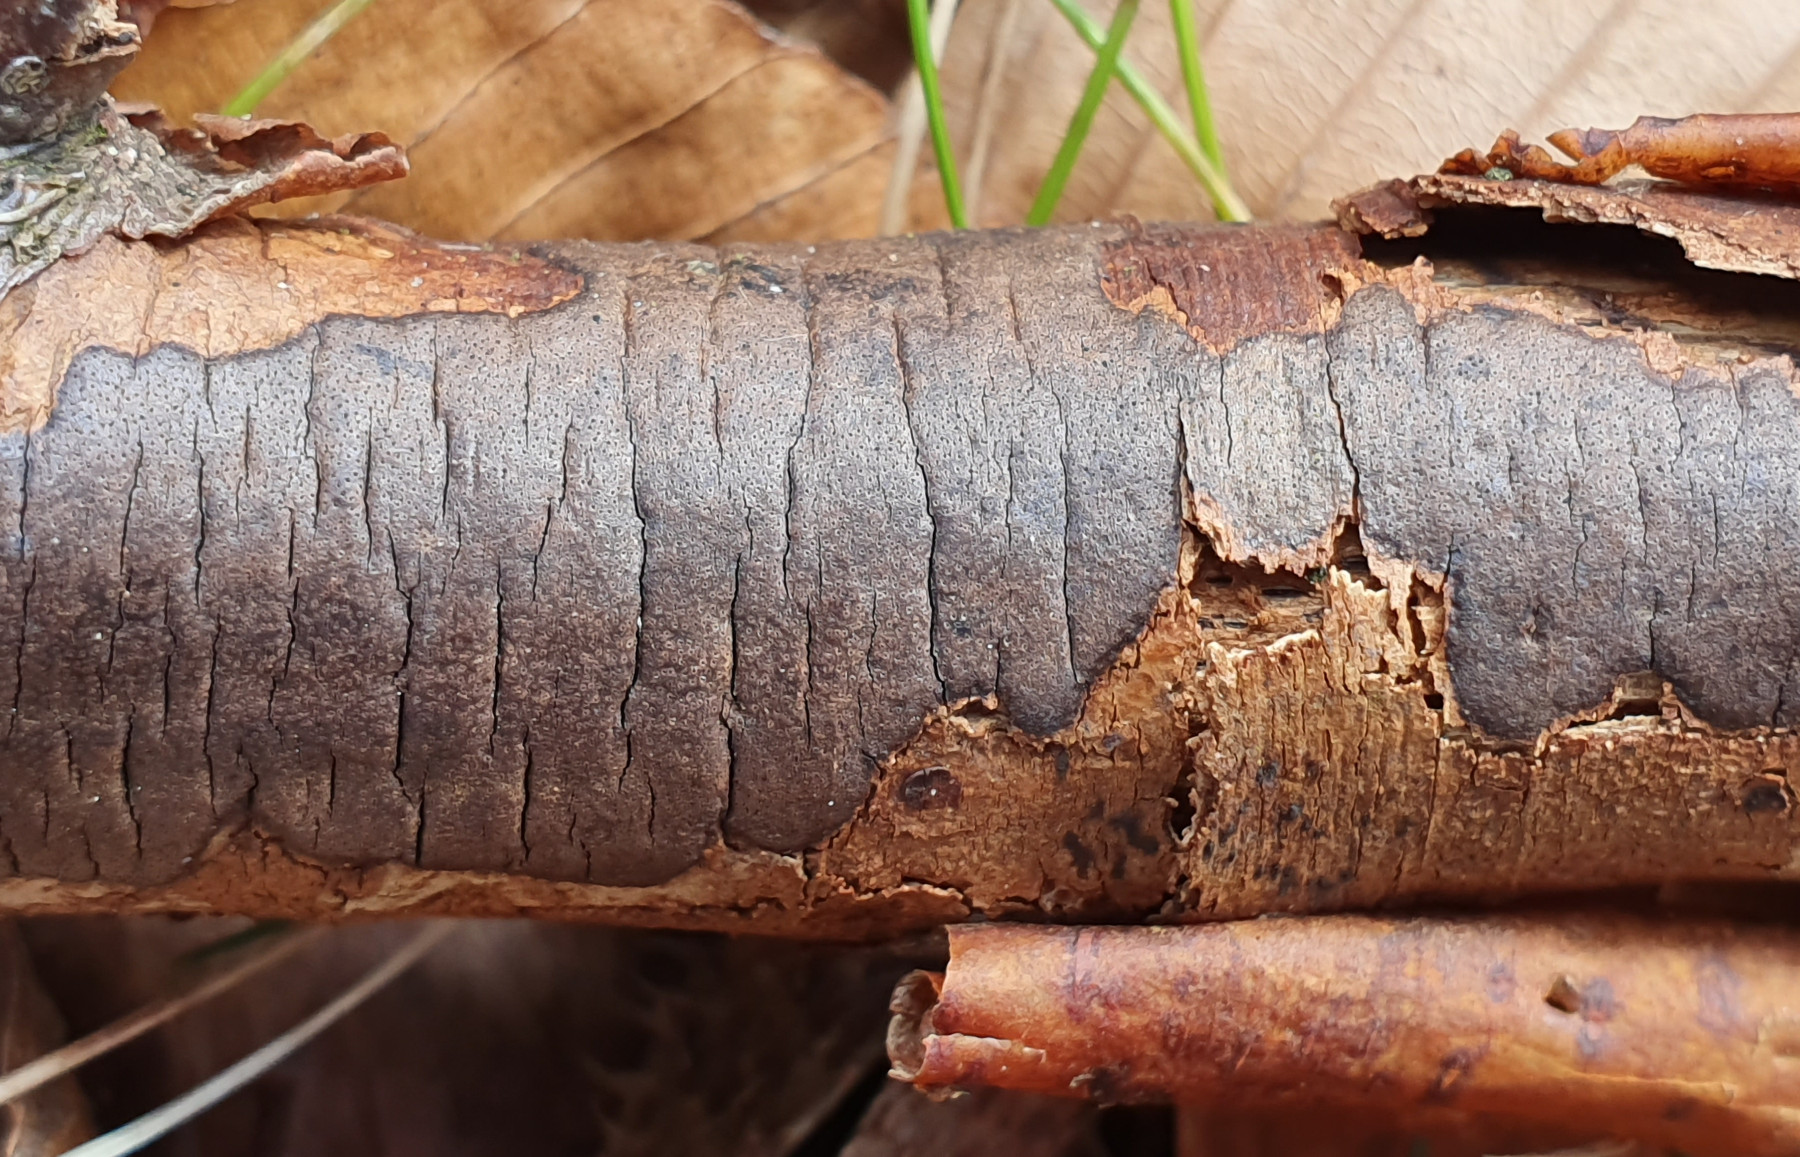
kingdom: Fungi
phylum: Ascomycota
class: Sordariomycetes
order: Xylariales
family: Diatrypaceae
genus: Diatrype
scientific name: Diatrype decorticata
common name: barksprænger-kulskorpe
